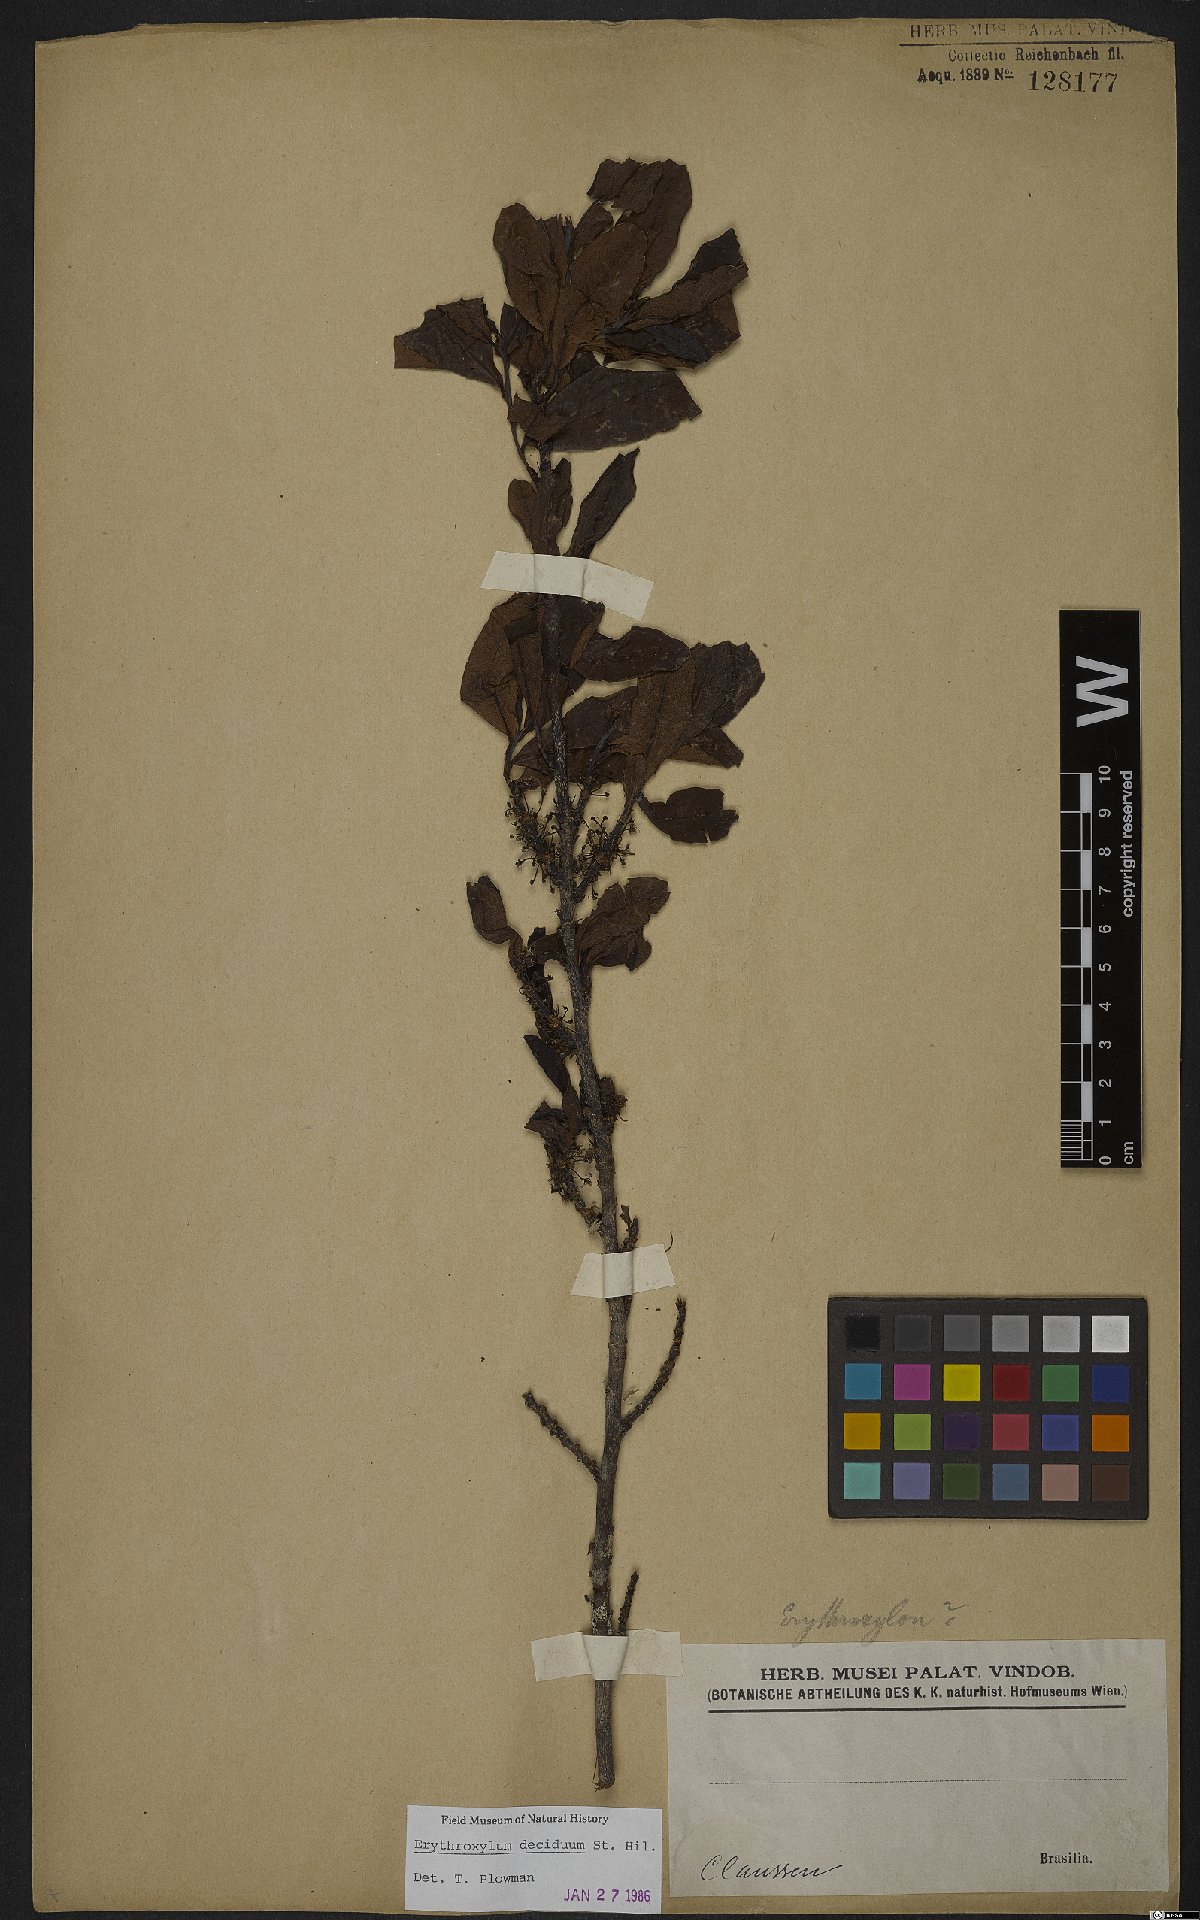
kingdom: Plantae
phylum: Tracheophyta
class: Magnoliopsida
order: Malpighiales
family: Erythroxylaceae
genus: Erythroxylum
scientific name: Erythroxylum deciduum
